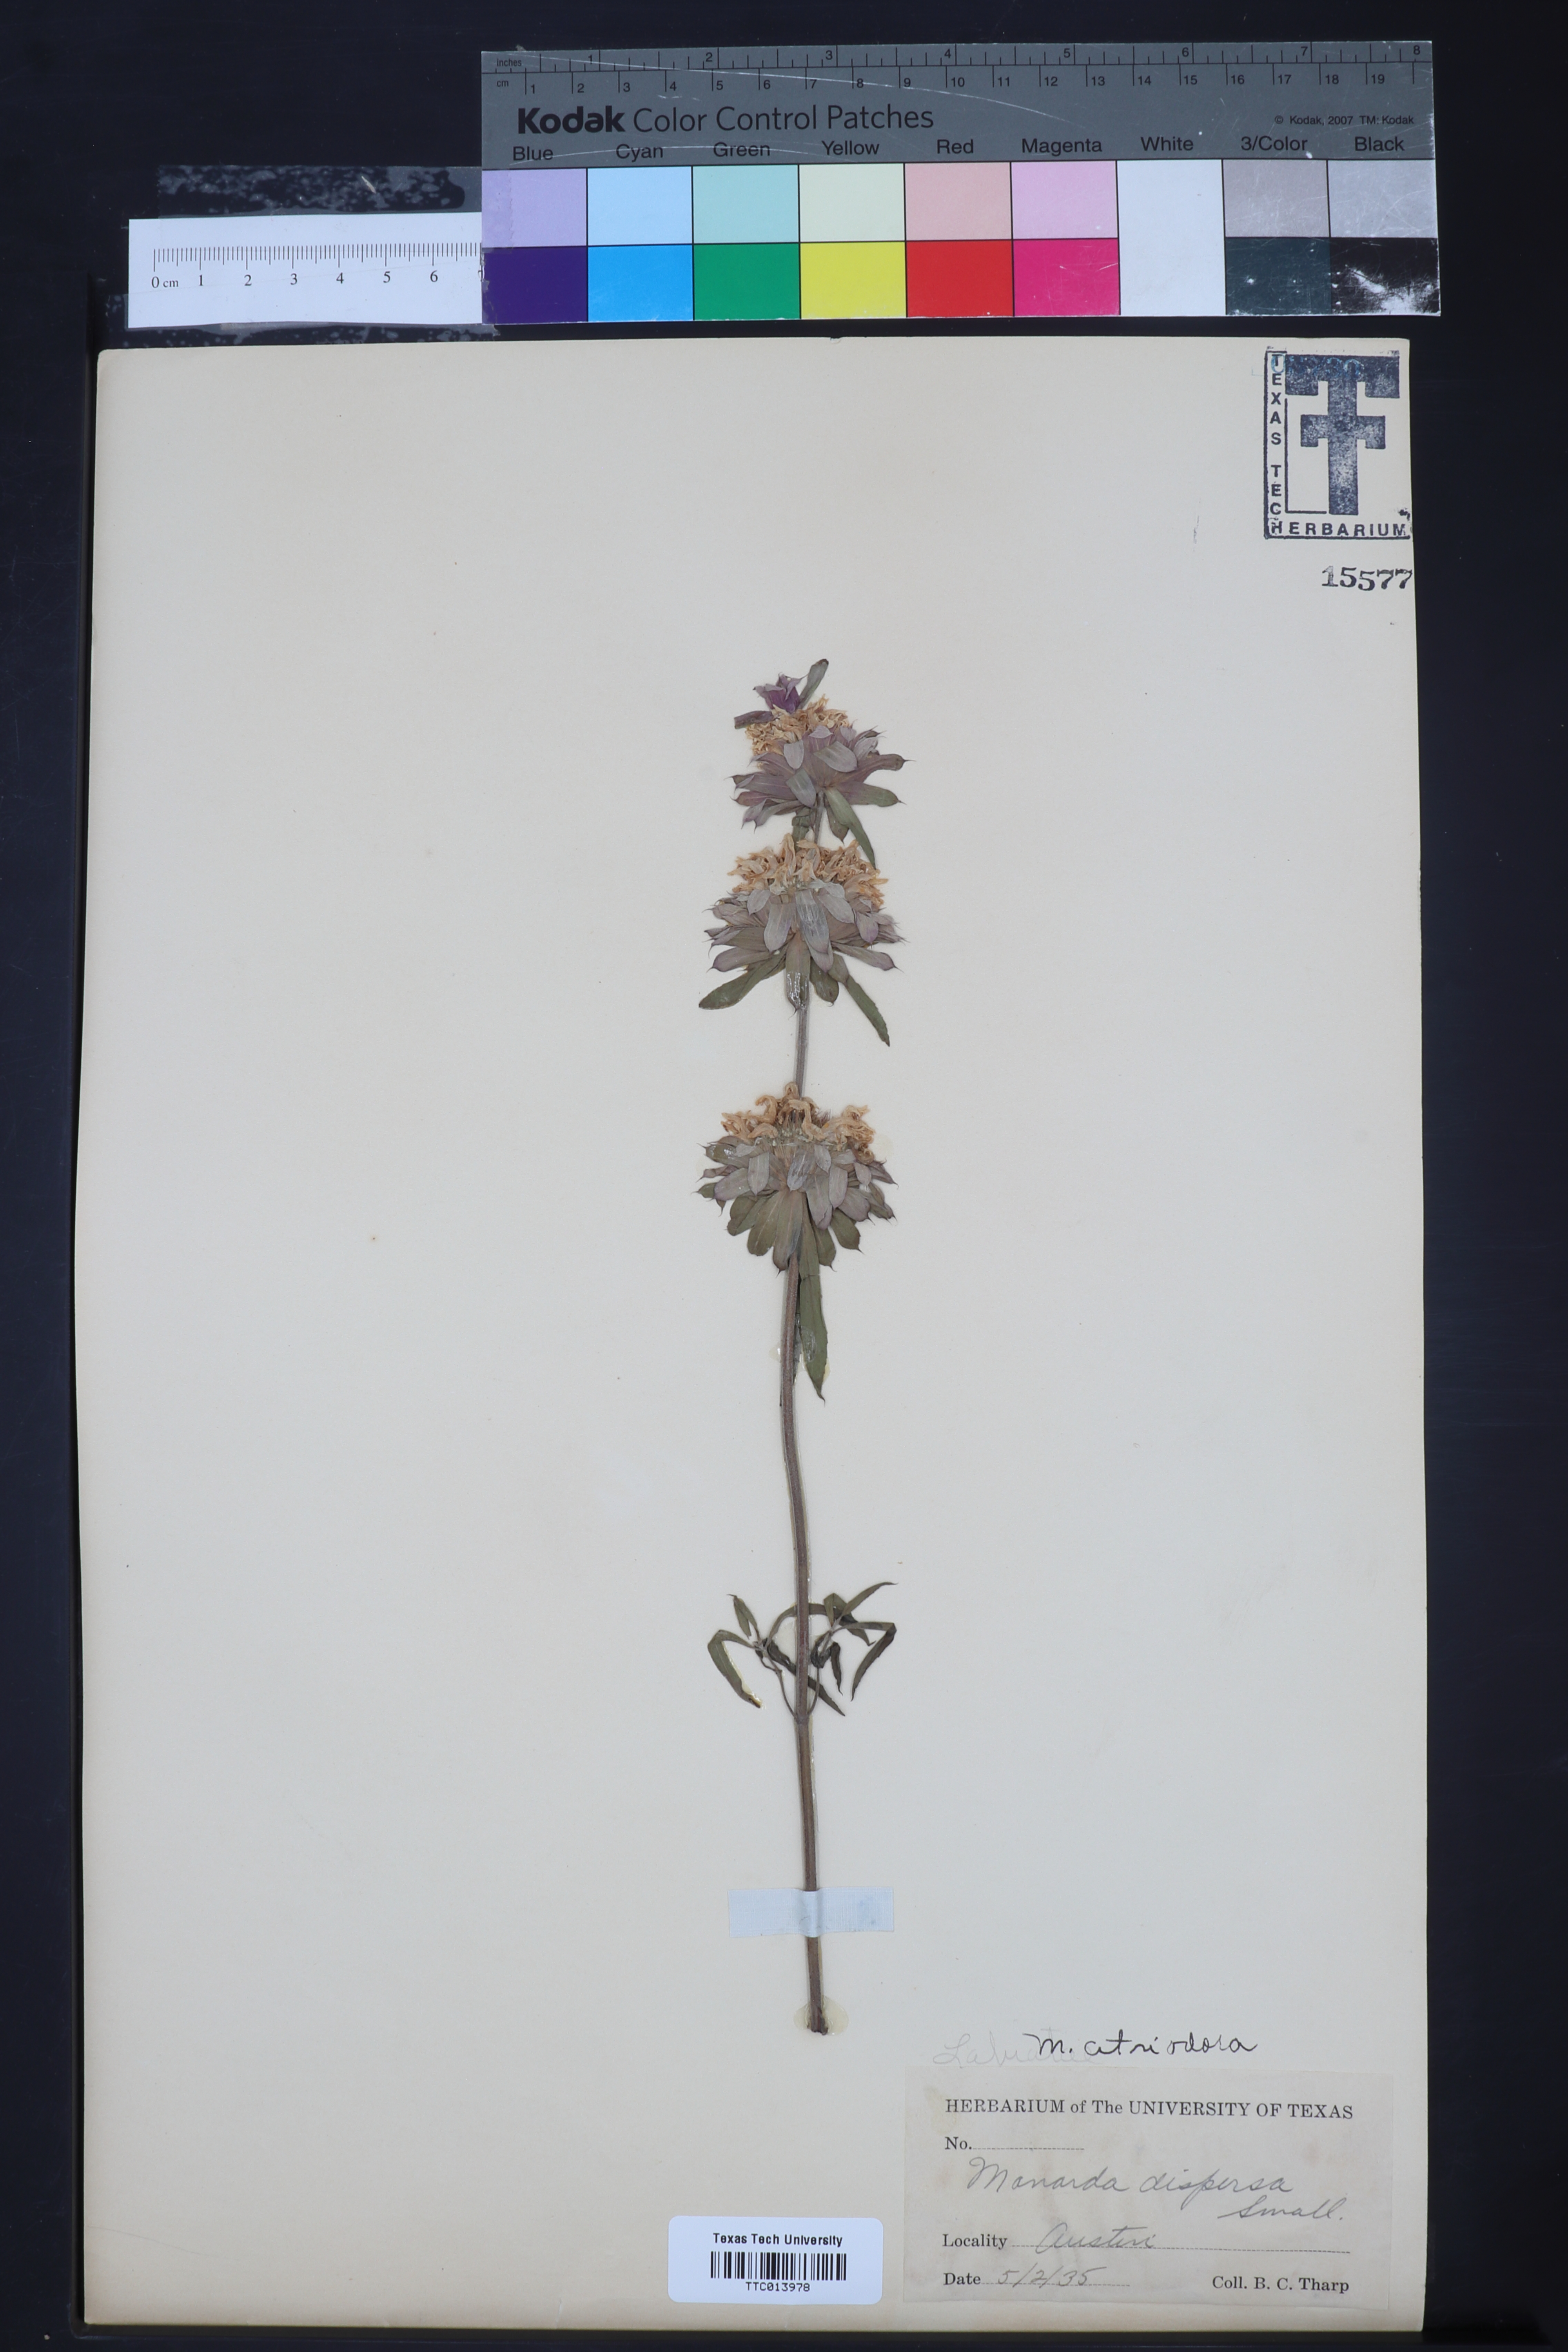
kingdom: Plantae
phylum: Tracheophyta
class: Magnoliopsida
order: Lamiales
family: Lamiaceae
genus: Monarda
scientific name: Monarda citriodora
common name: Lemon beebalm
